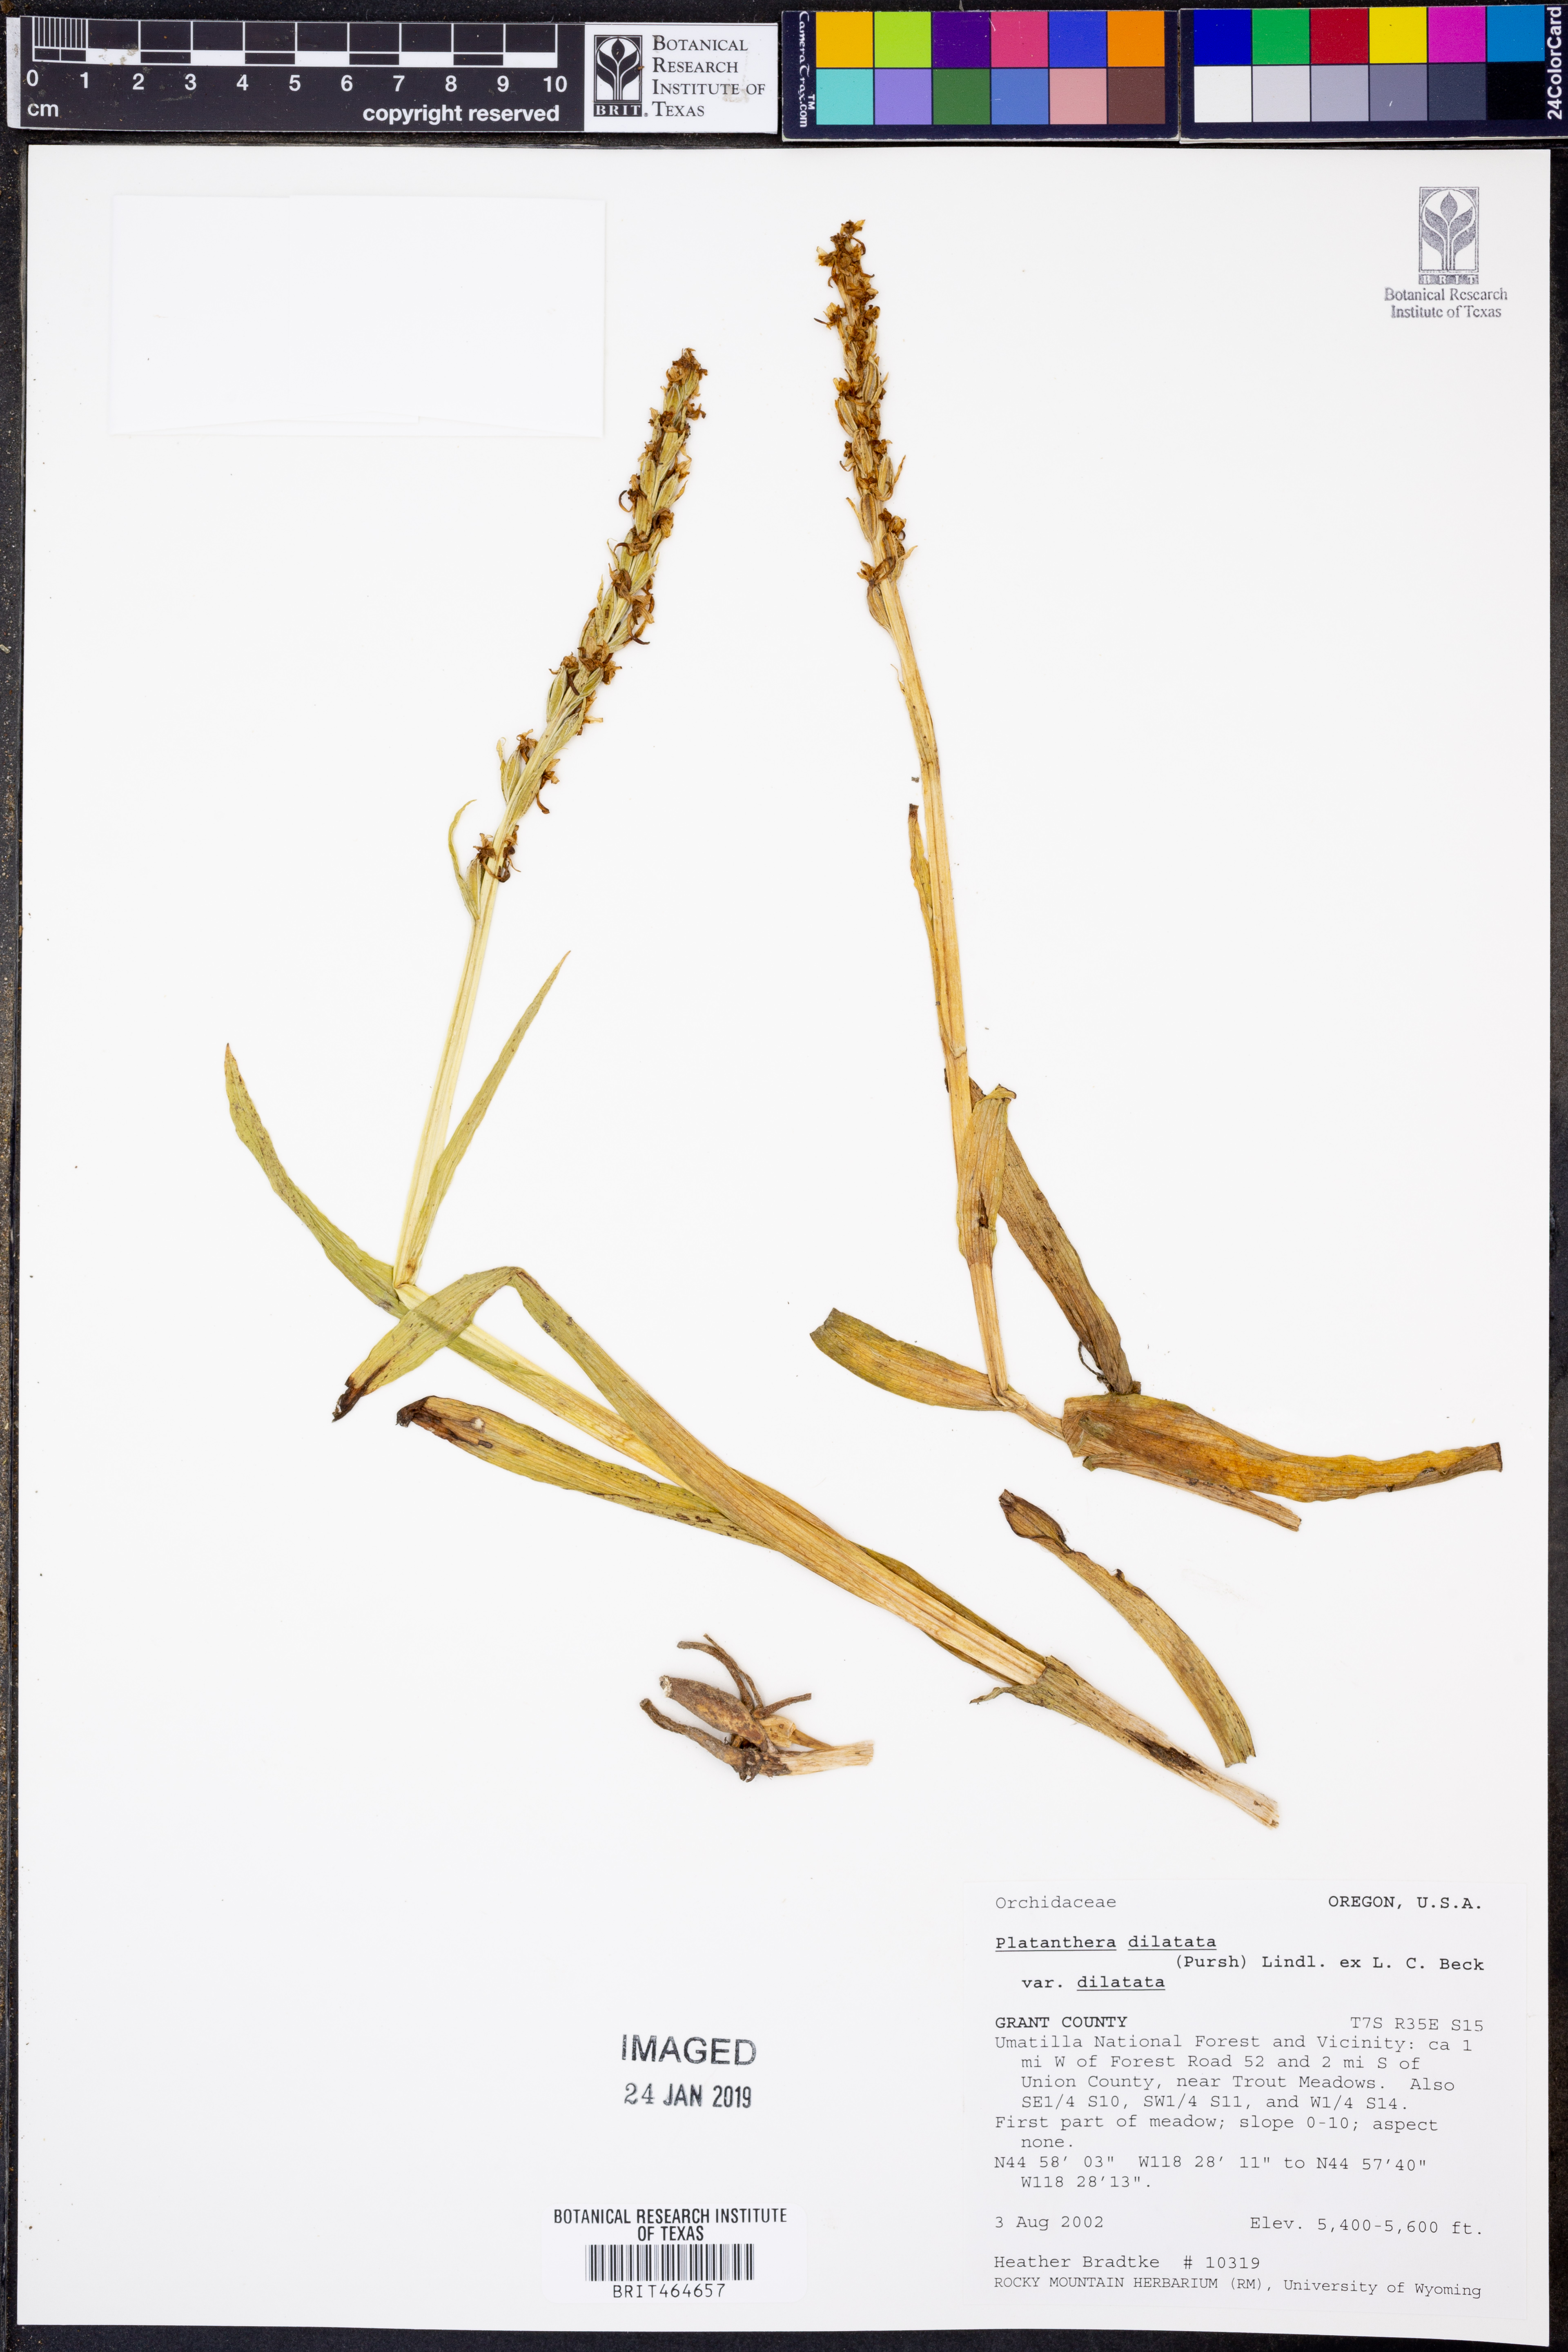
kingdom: Plantae
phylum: Tracheophyta
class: Liliopsida
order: Asparagales
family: Orchidaceae
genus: Platanthera
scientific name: Platanthera dilatata
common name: Bog candles
